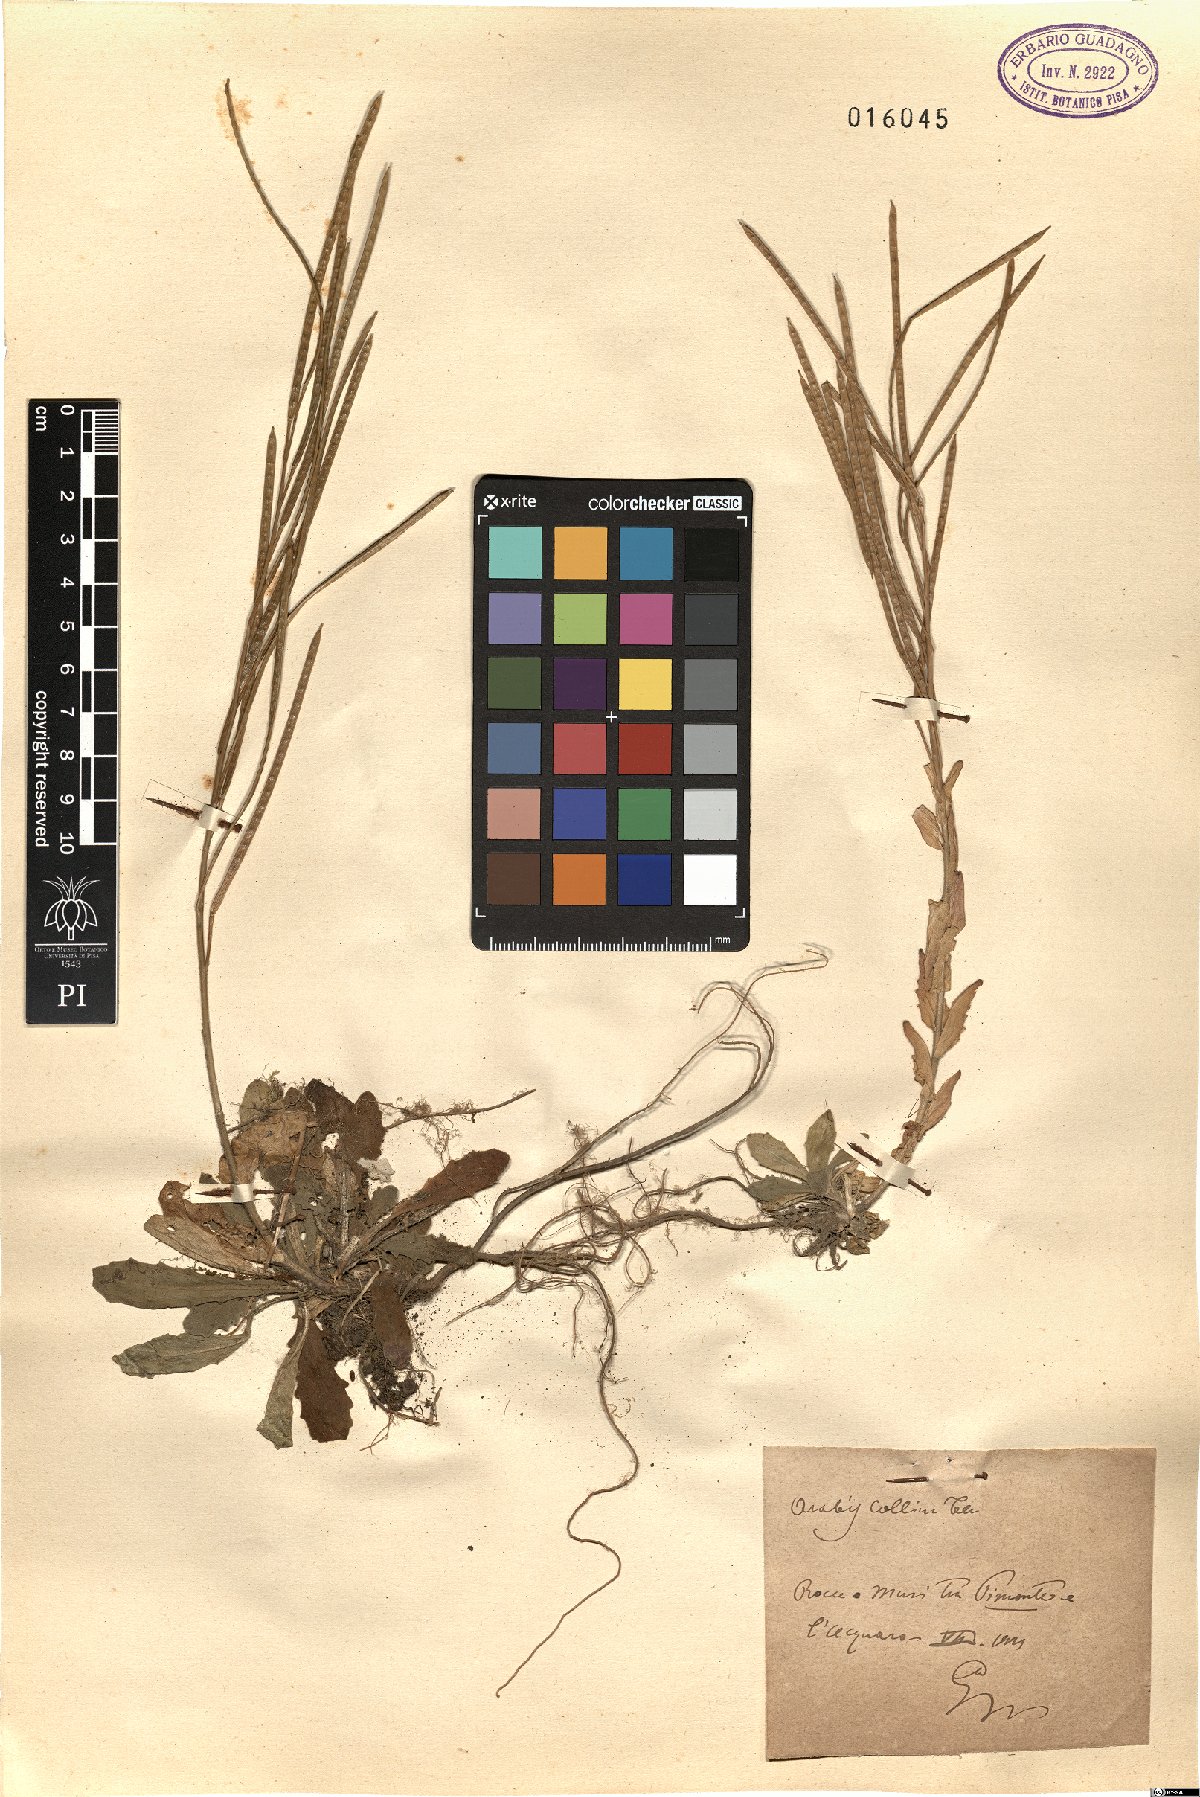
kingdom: Plantae
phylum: Tracheophyta
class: Magnoliopsida
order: Brassicales
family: Brassicaceae
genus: Arabis
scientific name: Arabis collina
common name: Rosy cress
